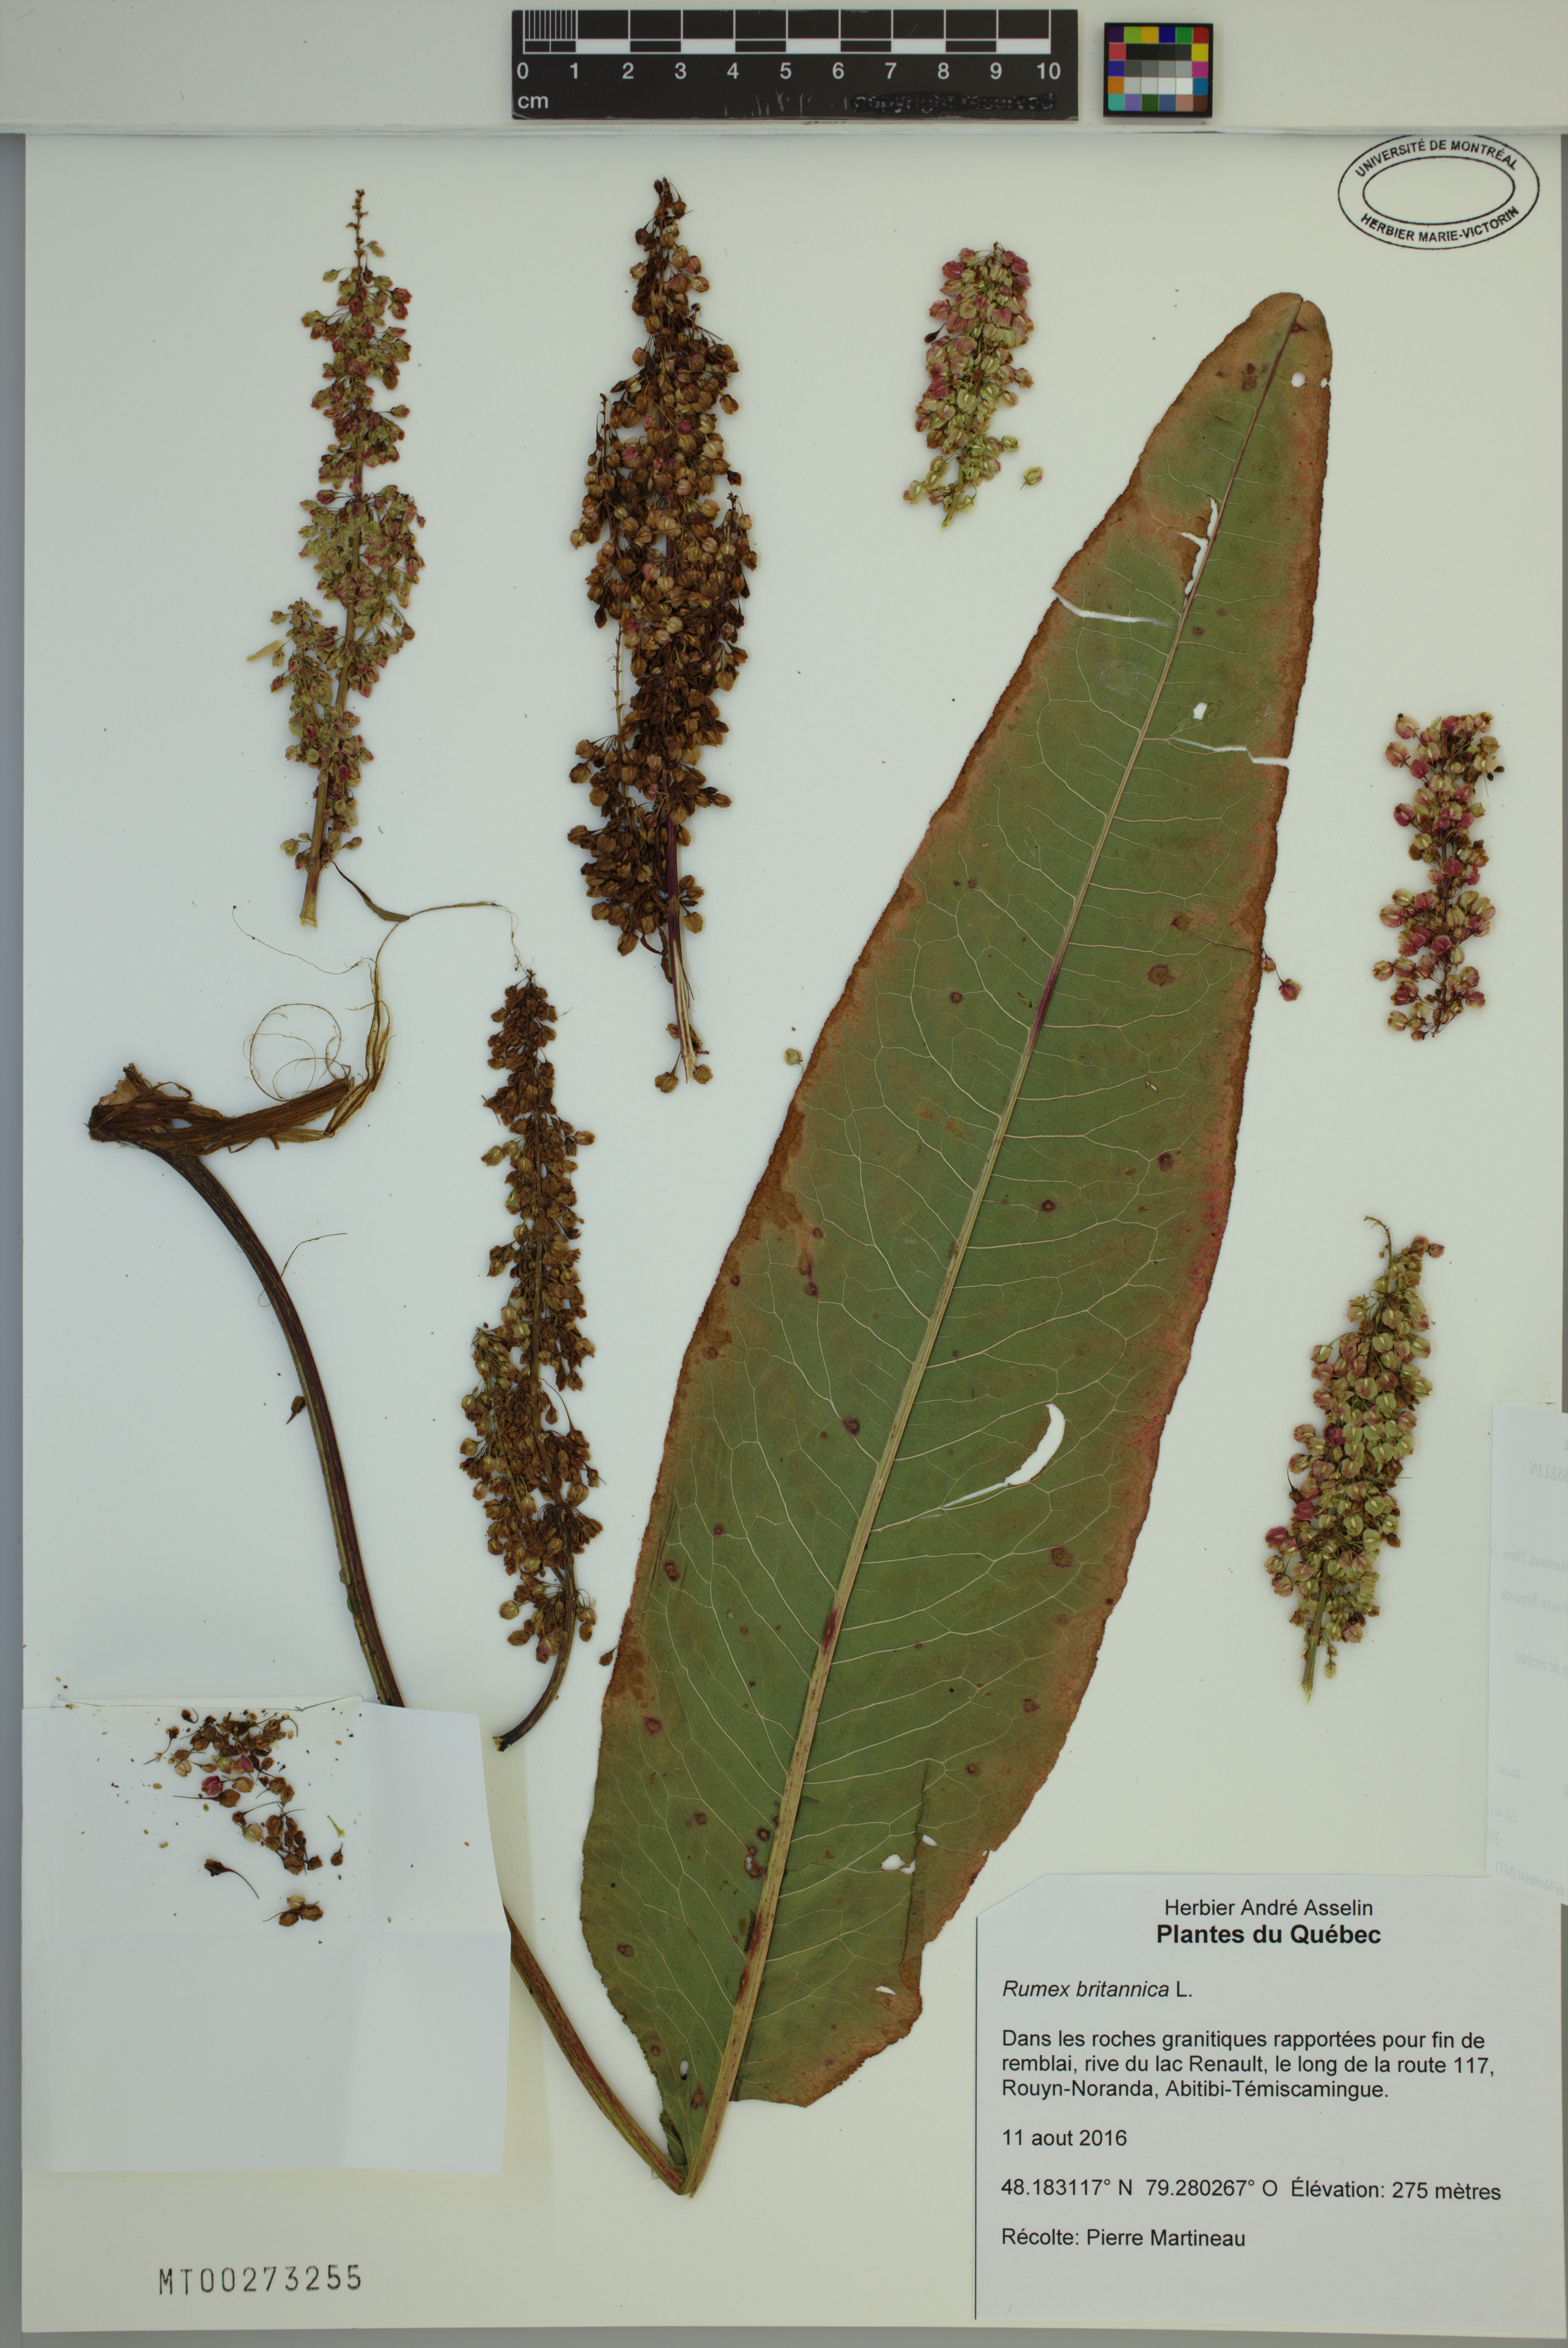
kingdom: Plantae
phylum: Tracheophyta
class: Magnoliopsida
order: Caryophyllales
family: Polygonaceae
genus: Rumex
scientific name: Rumex britannica
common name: British dock
